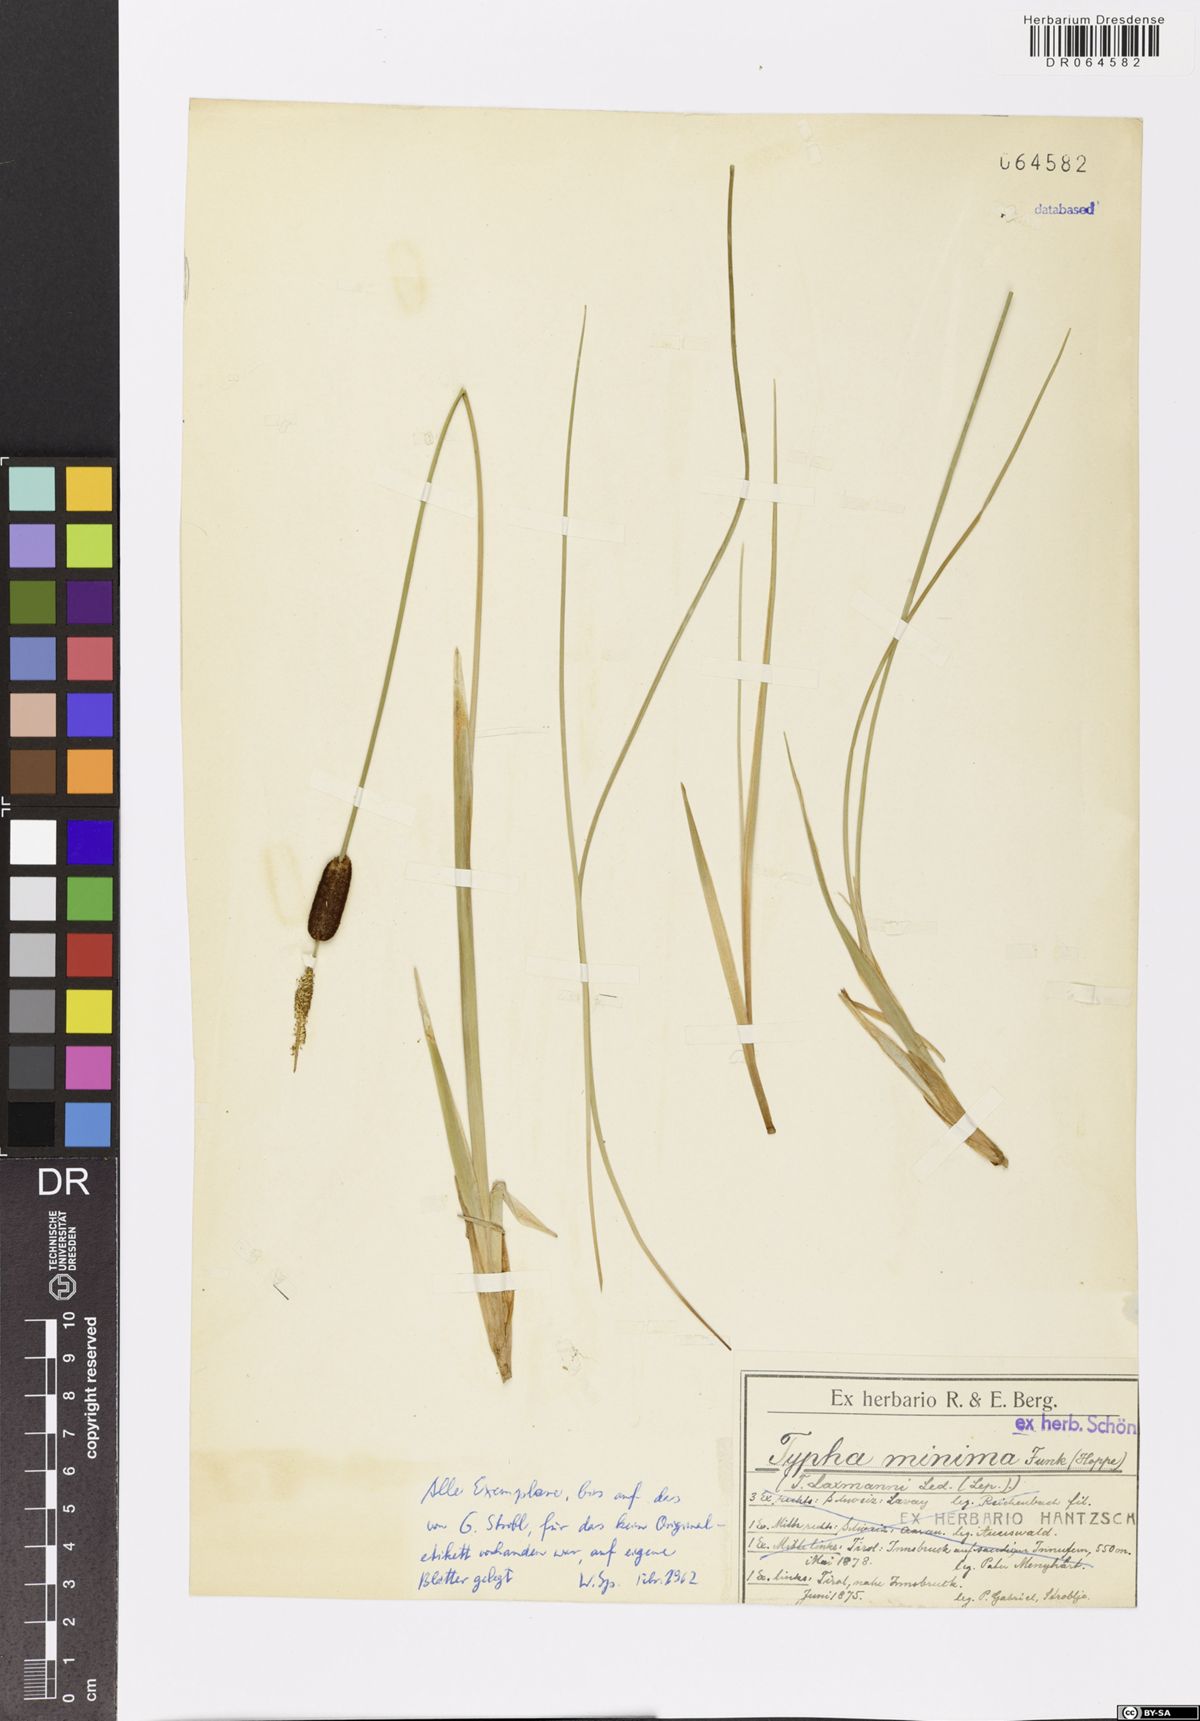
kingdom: Plantae
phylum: Tracheophyta
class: Liliopsida
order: Poales
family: Typhaceae
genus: Typha
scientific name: Typha minima
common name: Dwarf bulrush
